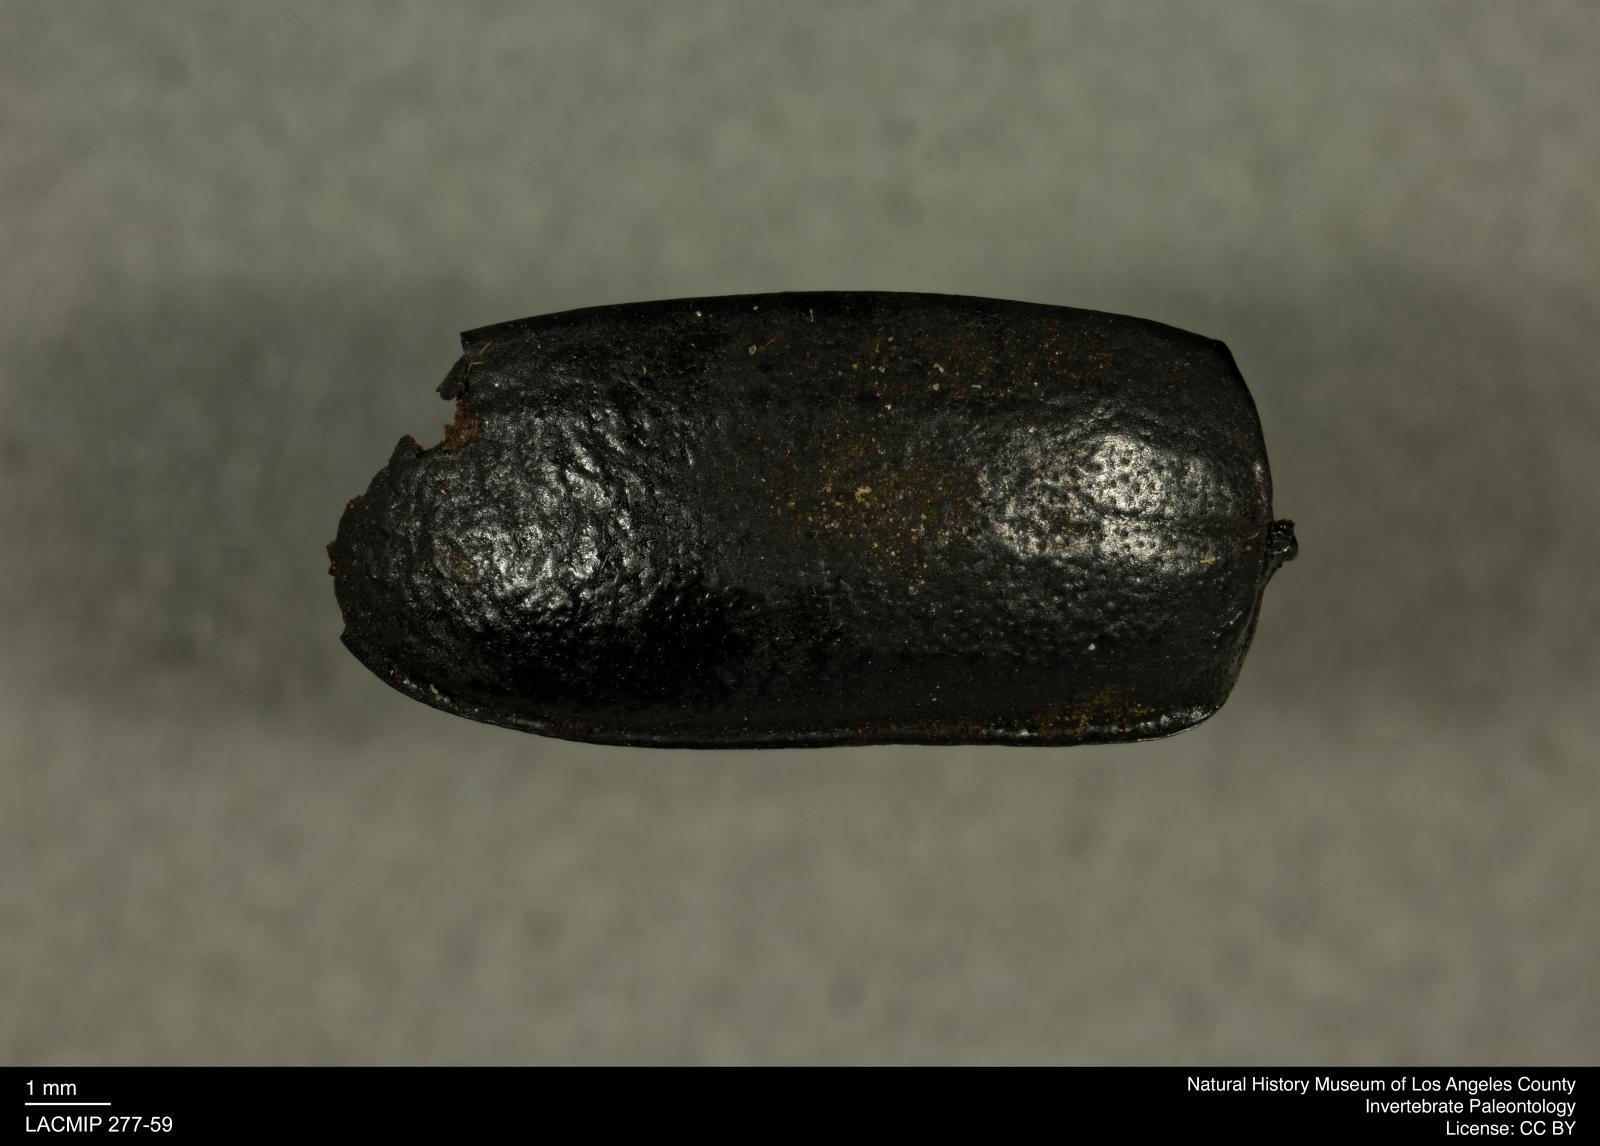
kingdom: Animalia
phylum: Arthropoda
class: Insecta
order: Coleoptera
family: Tenebrionidae
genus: Coniontis
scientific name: Coniontis abdominalis
